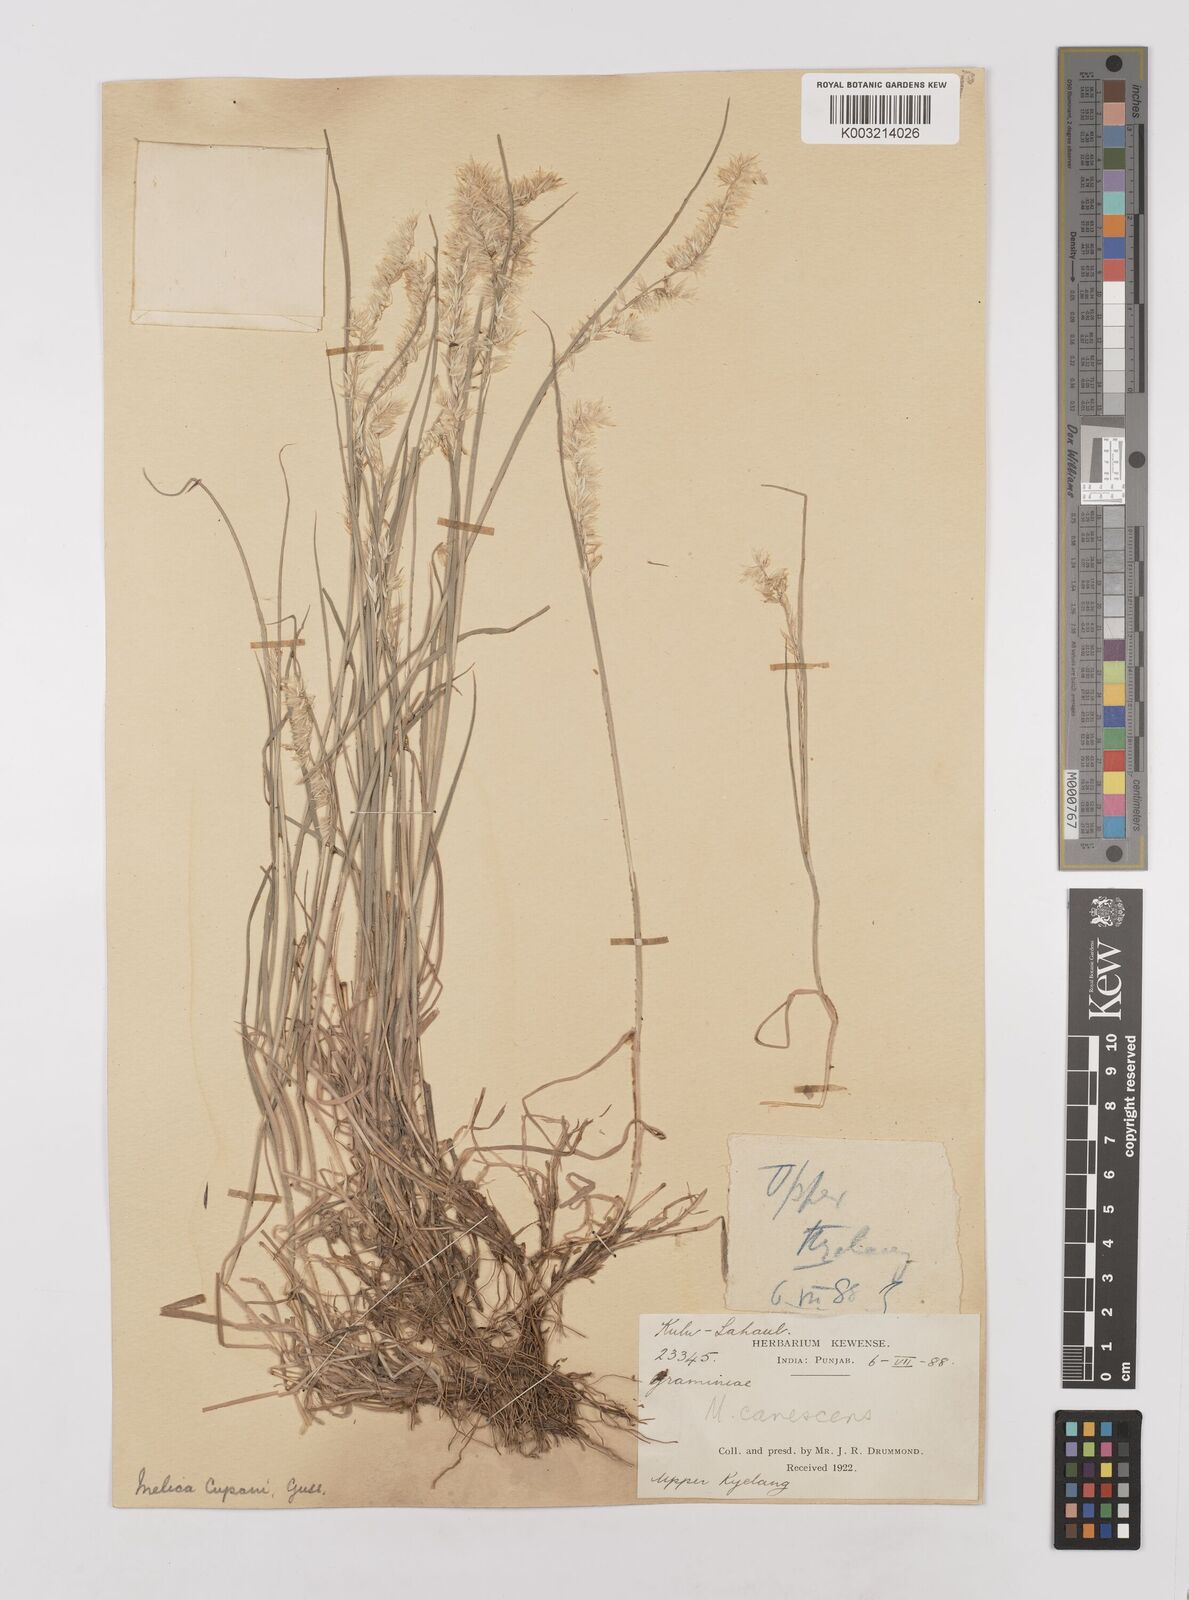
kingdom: Plantae
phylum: Tracheophyta
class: Liliopsida
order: Poales
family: Poaceae
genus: Melica
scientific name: Melica persica
